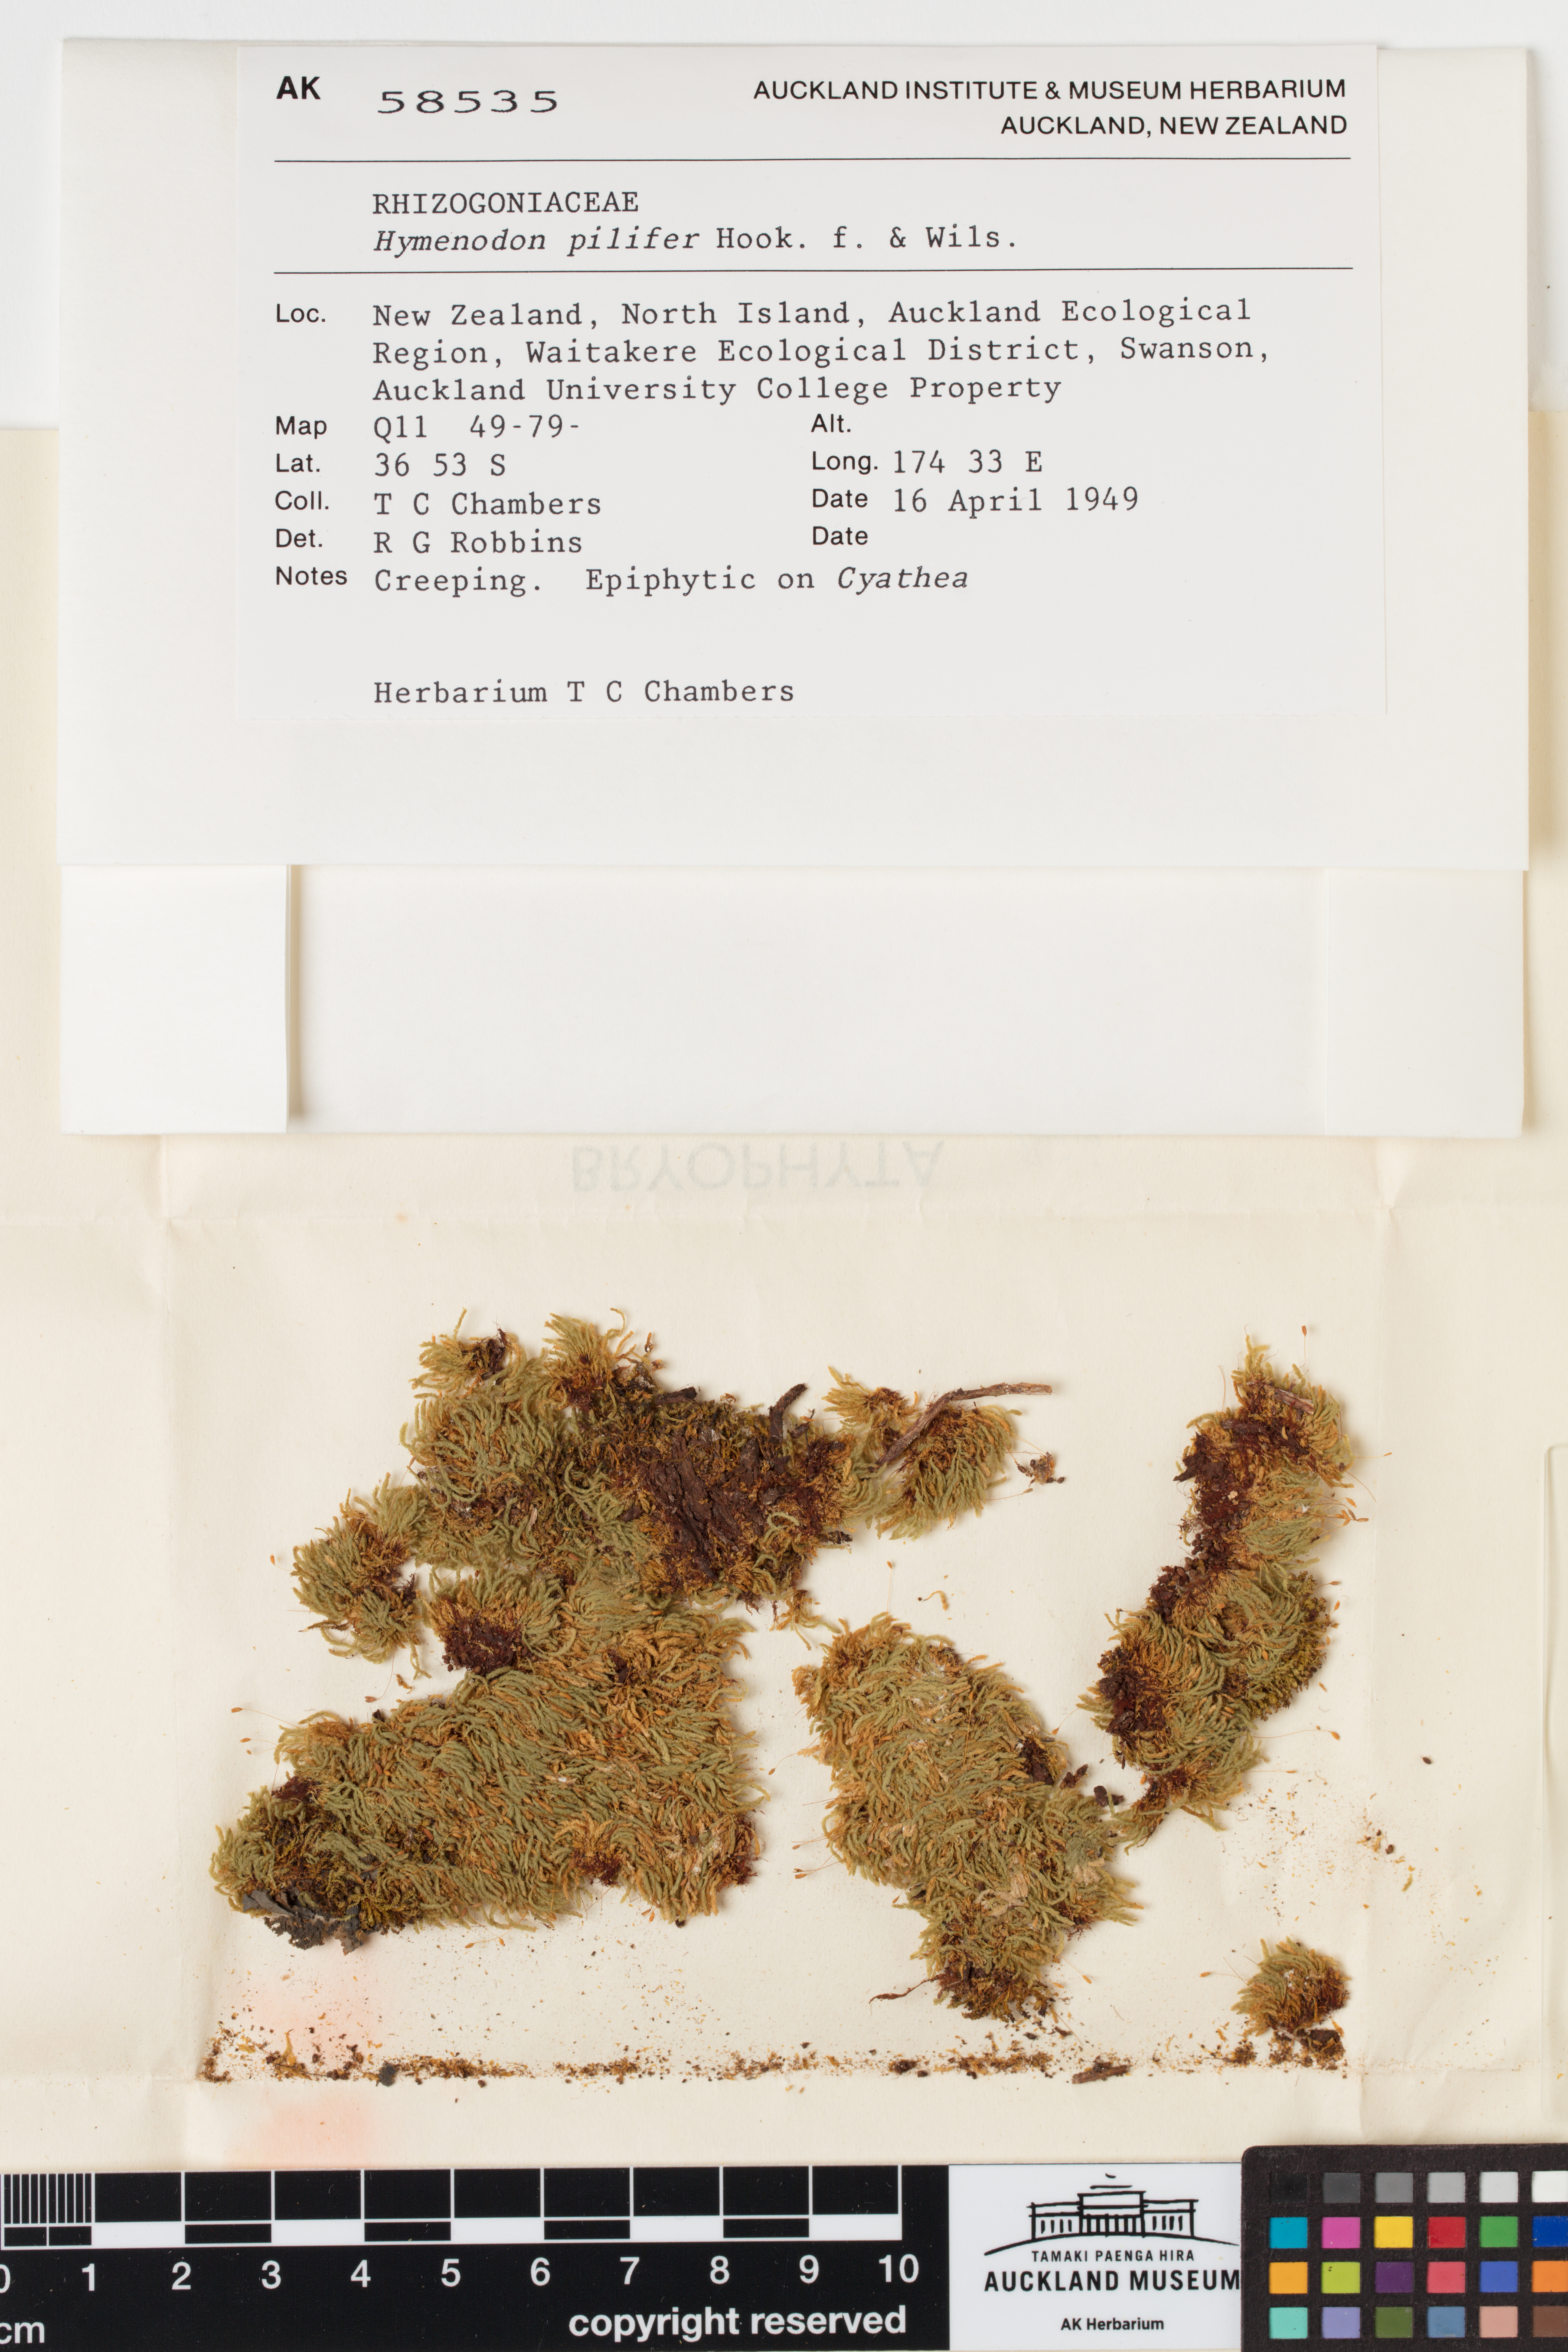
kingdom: Plantae
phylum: Bryophyta
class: Bryopsida
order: Orthodontiales
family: Orthodontiaceae
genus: Hymenodon
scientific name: Hymenodon pilifer
